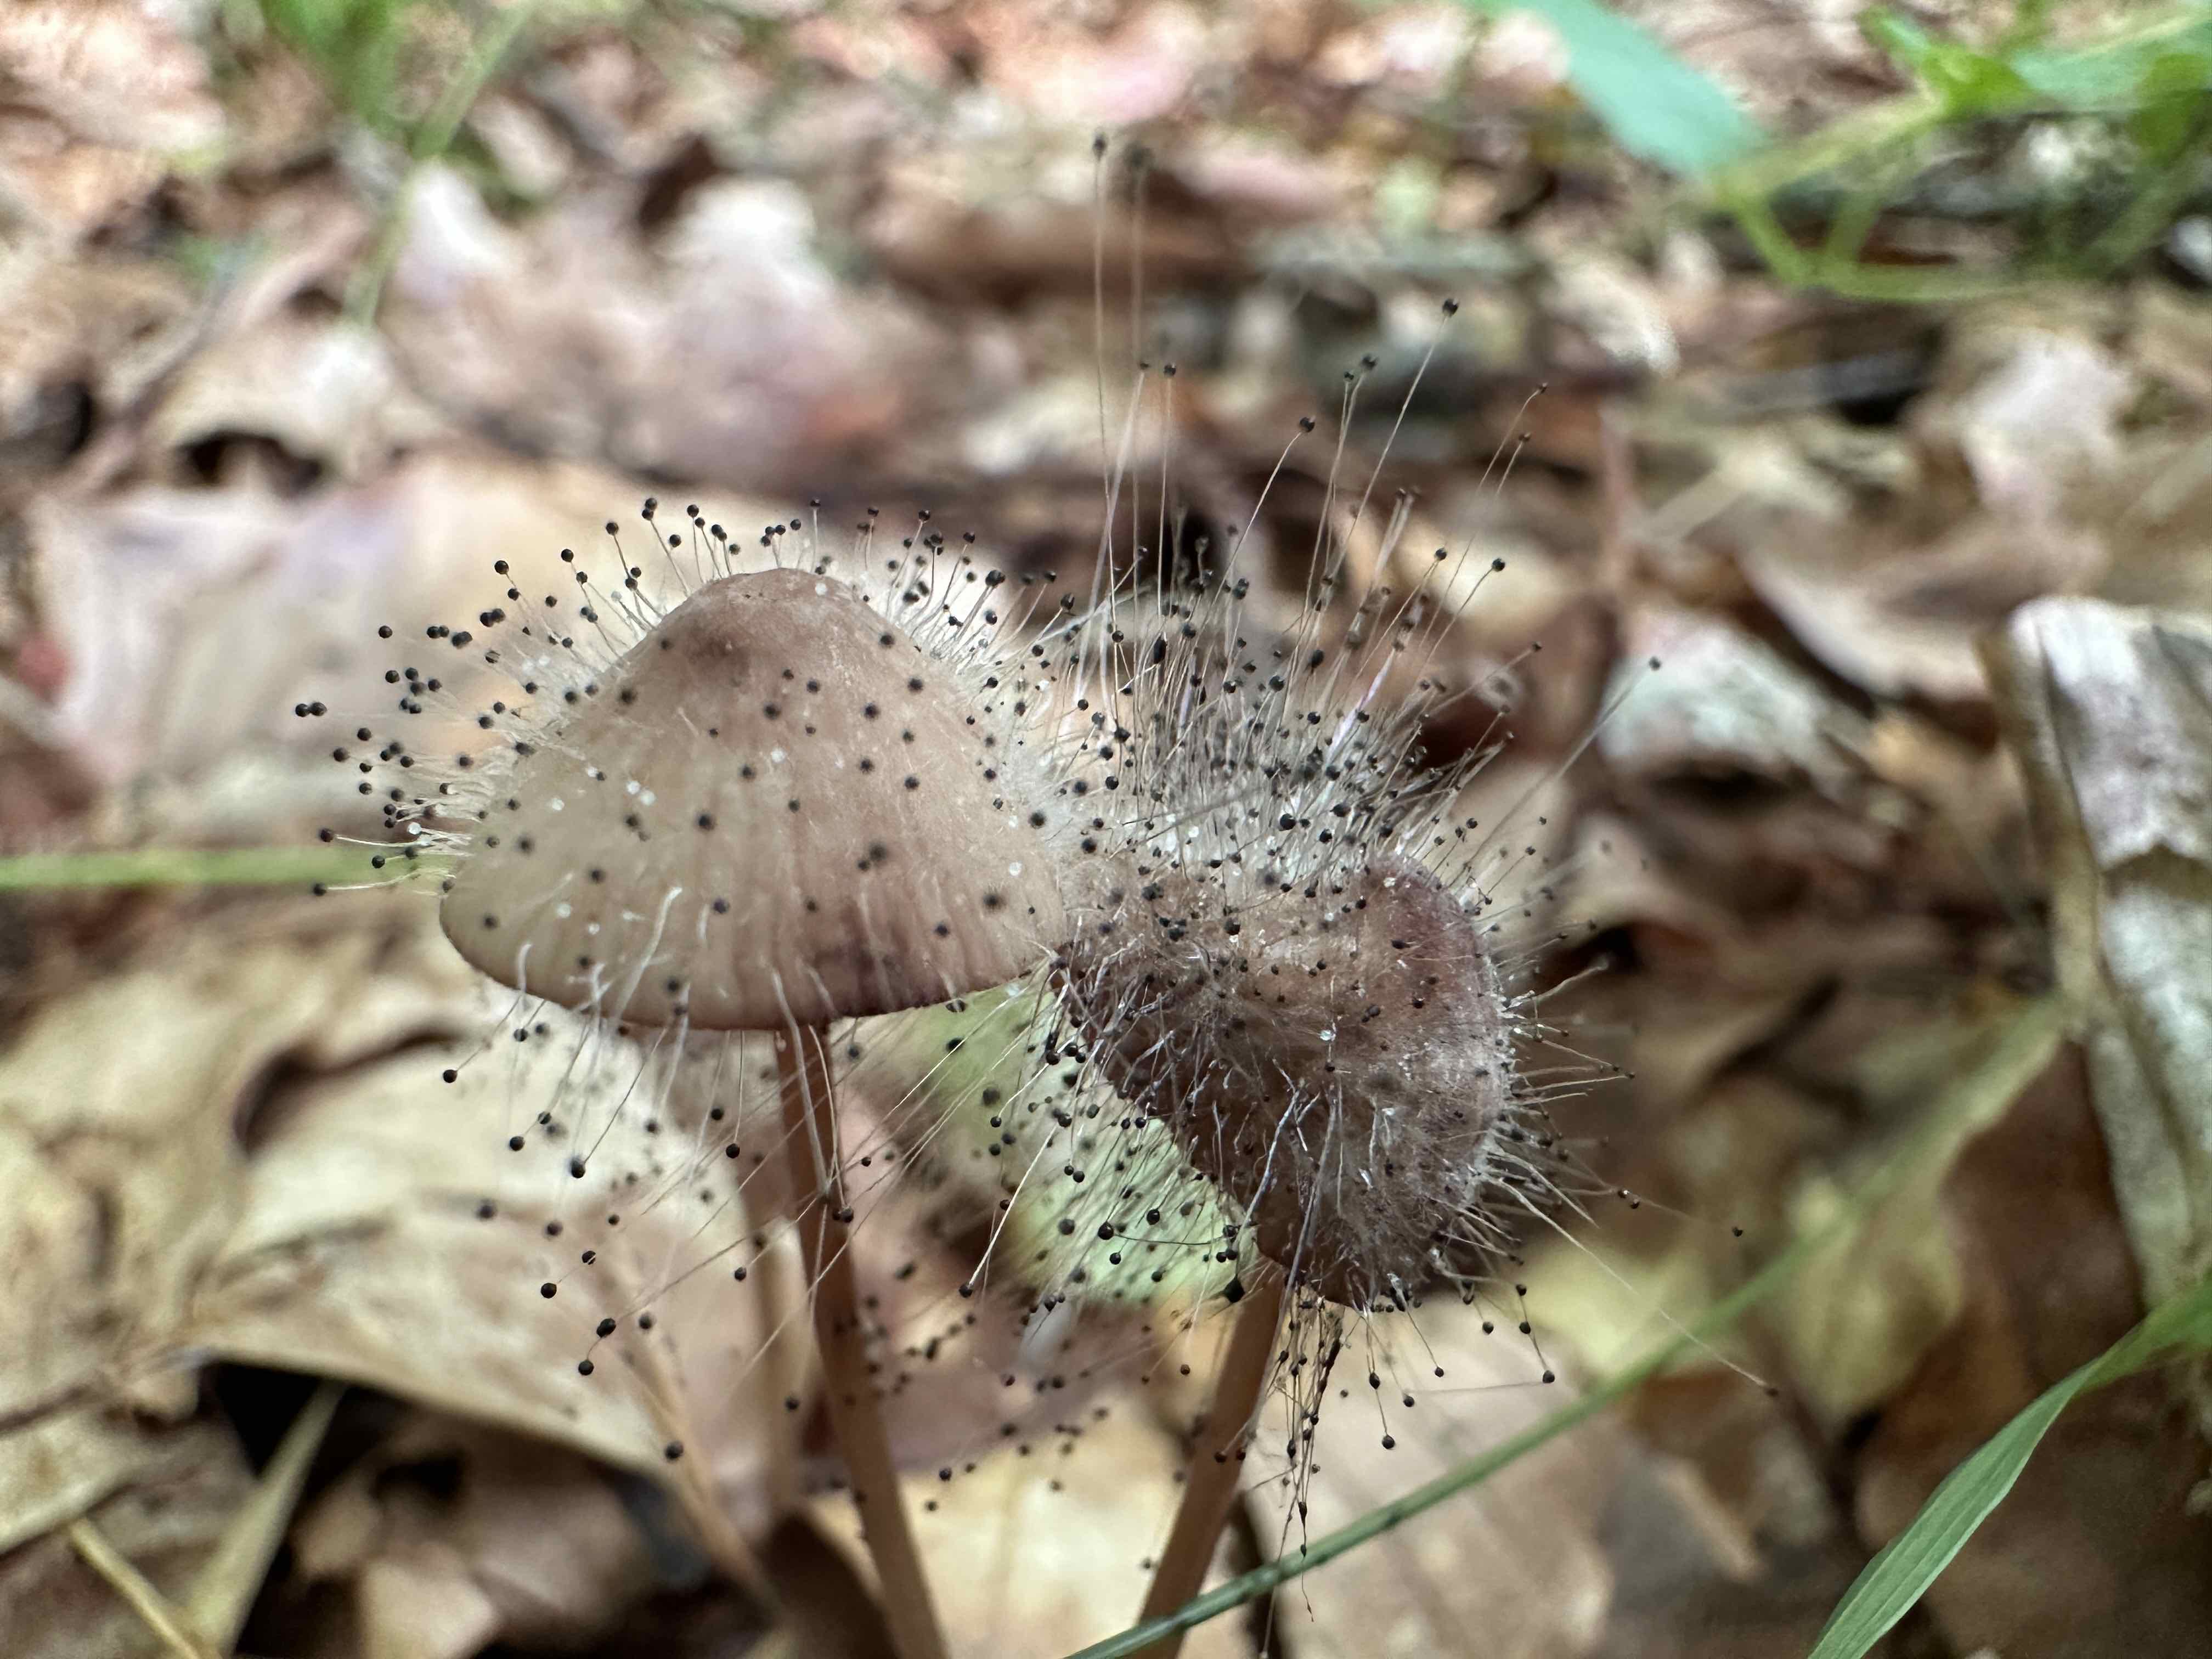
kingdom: Fungi
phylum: Mucoromycota
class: Mucoromycetes
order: Mucorales
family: Phycomycetaceae
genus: Spinellus
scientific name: Spinellus fusiger
